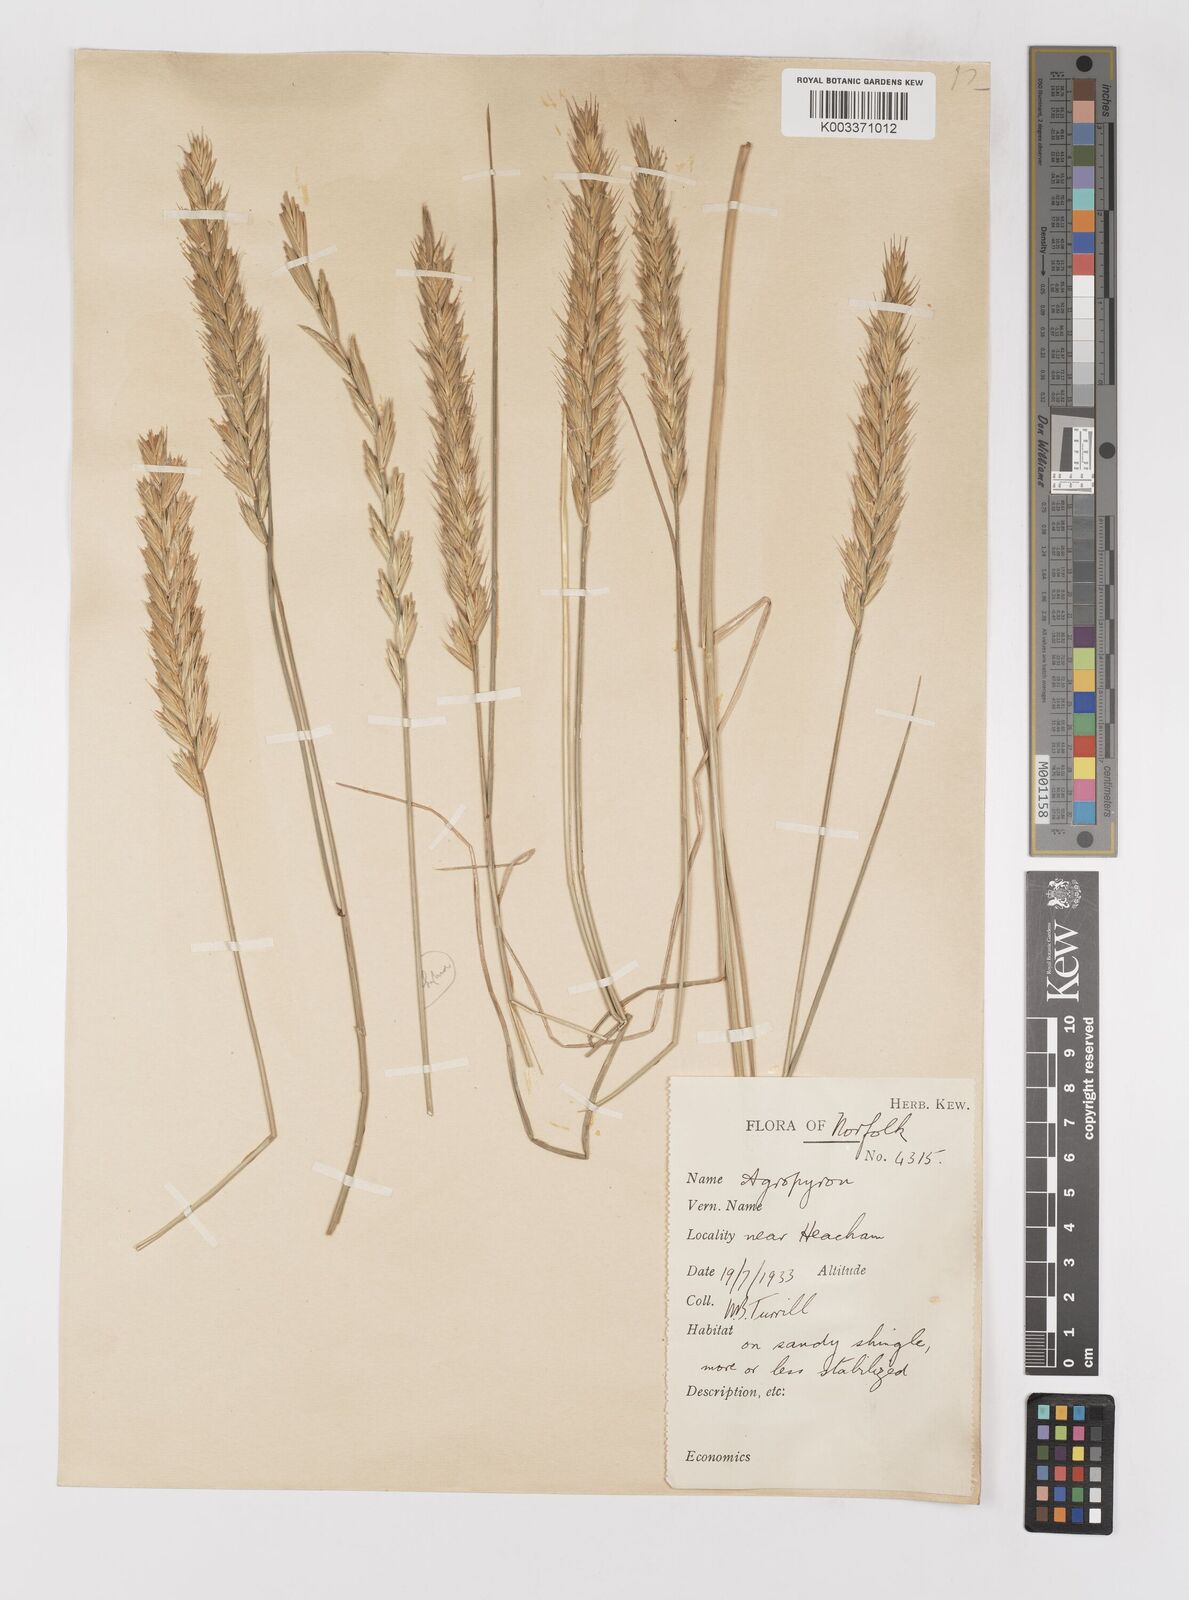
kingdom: Plantae
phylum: Tracheophyta
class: Liliopsida
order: Poales
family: Poaceae
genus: Elymus
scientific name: Elymus repens
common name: Quackgrass
